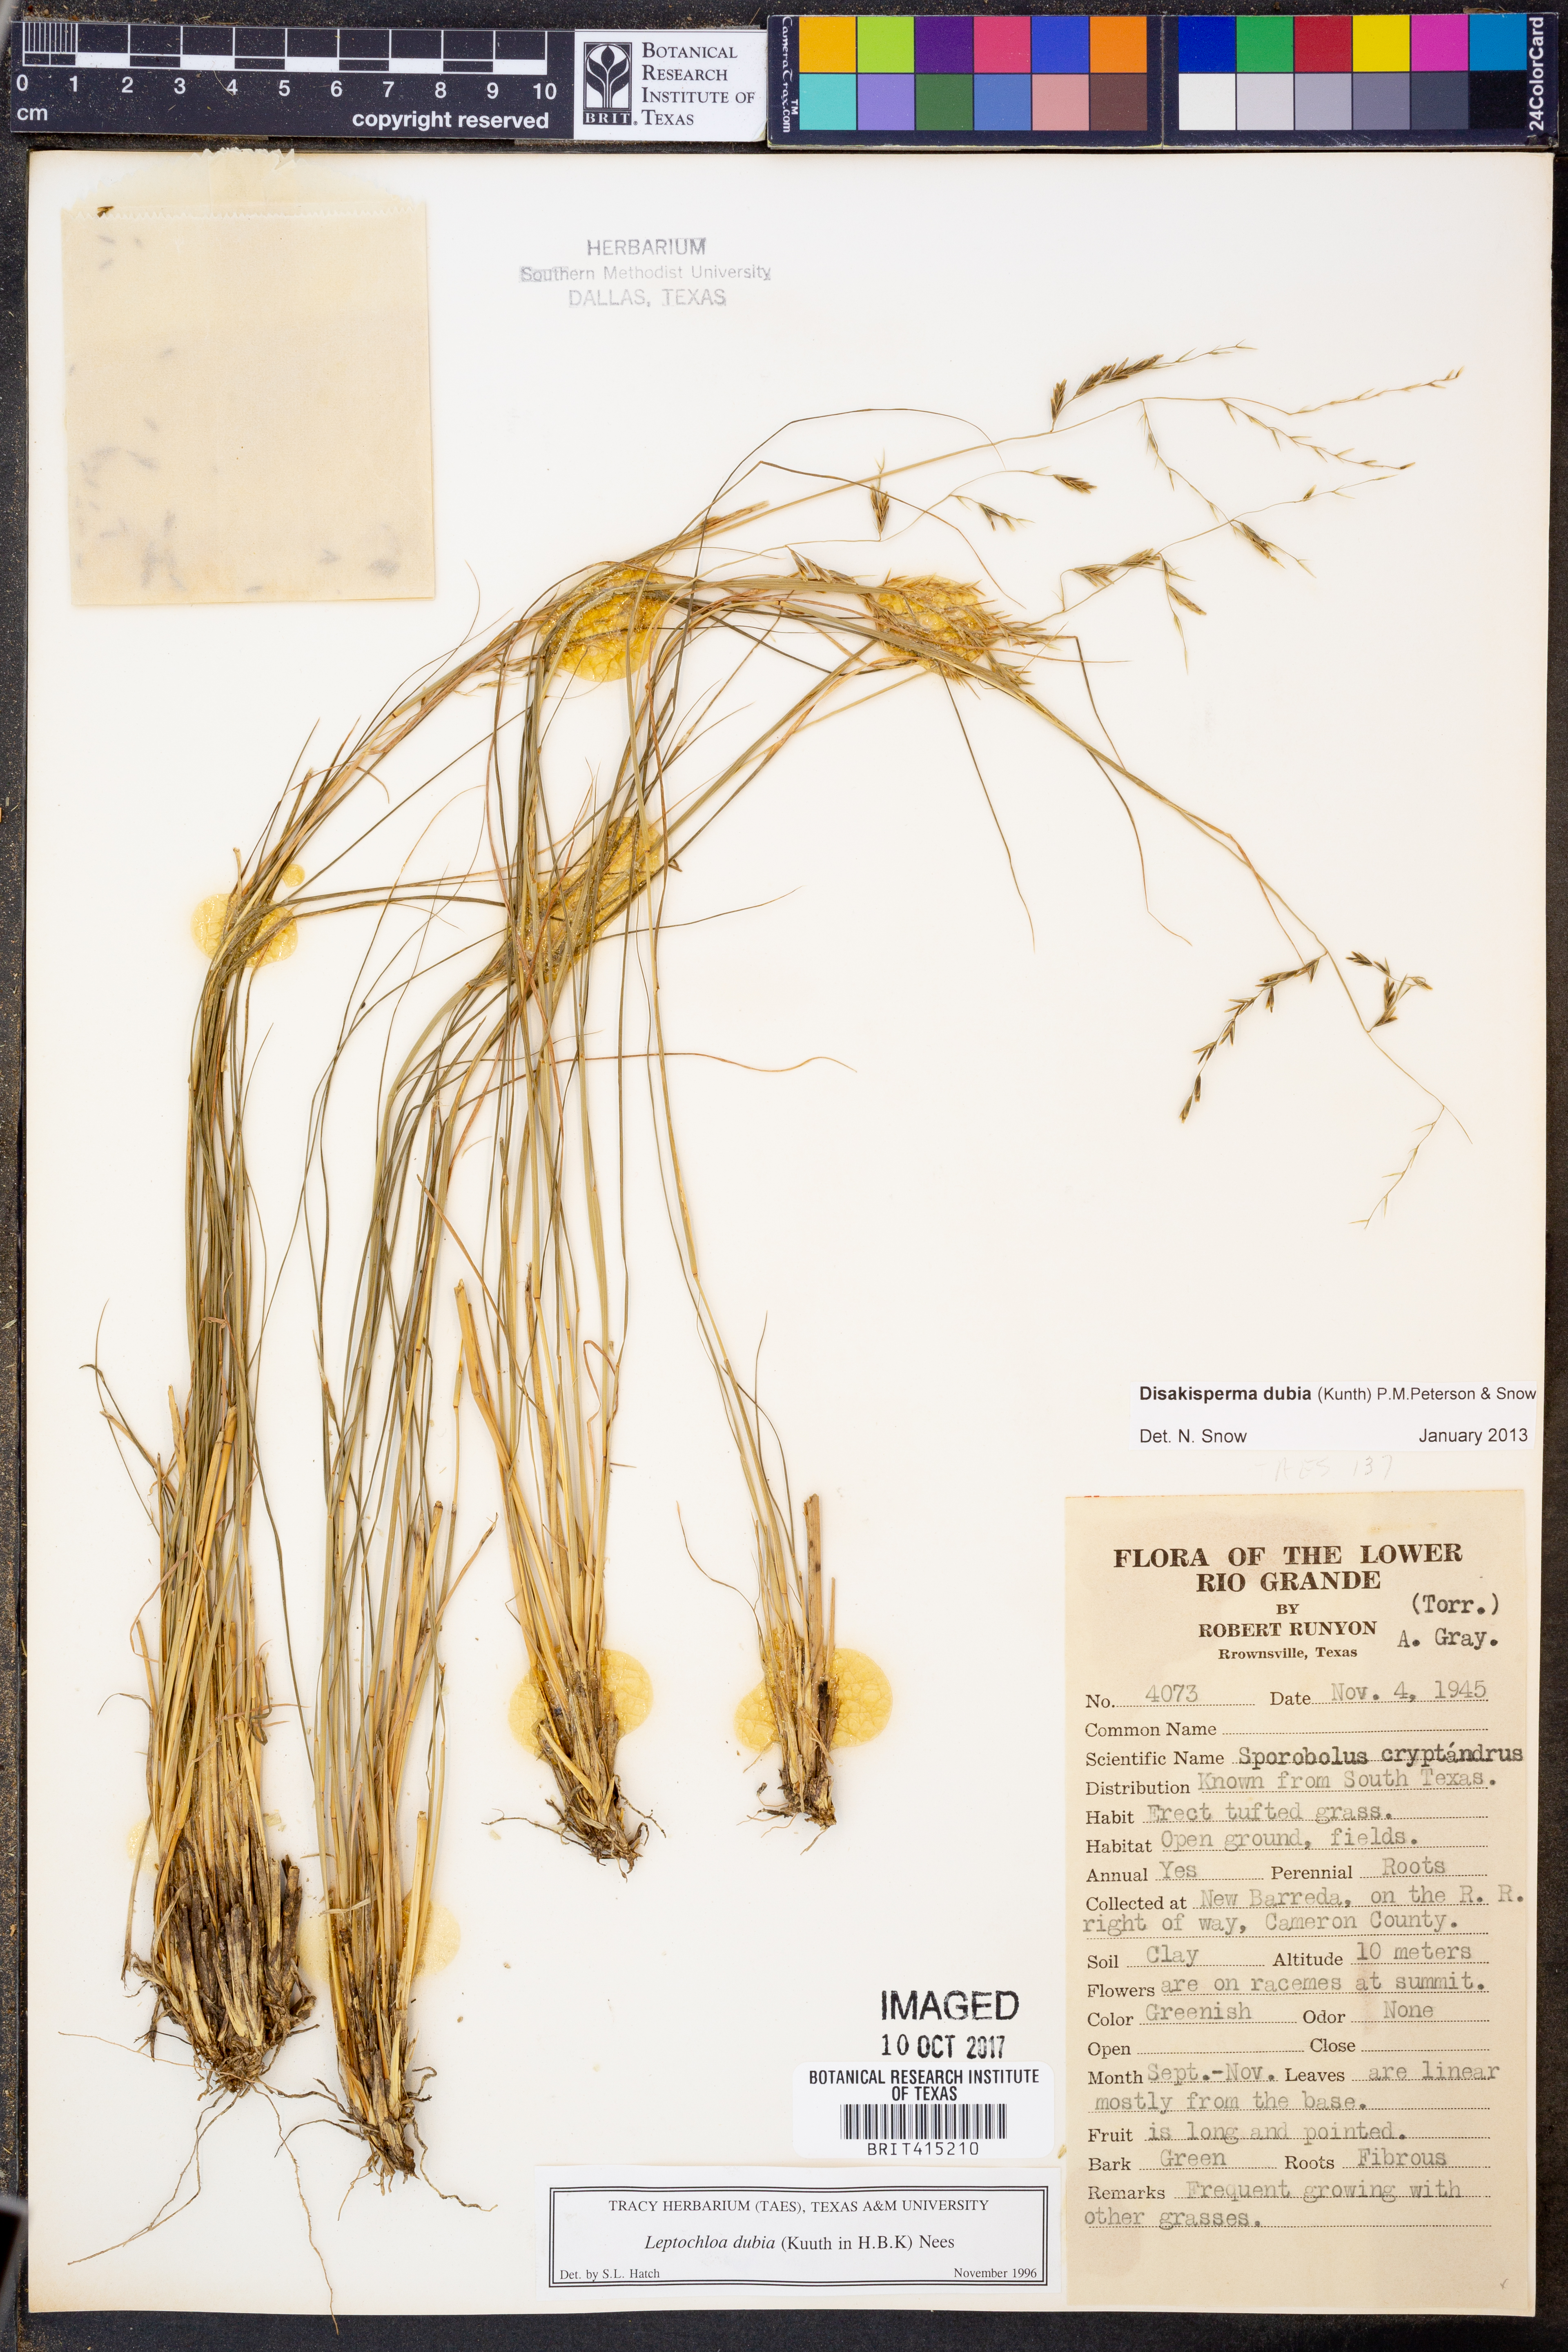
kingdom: Plantae
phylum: Tracheophyta
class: Liliopsida
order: Poales
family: Poaceae
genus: Disakisperma
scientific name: Disakisperma dubium
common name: Green sprangletop
